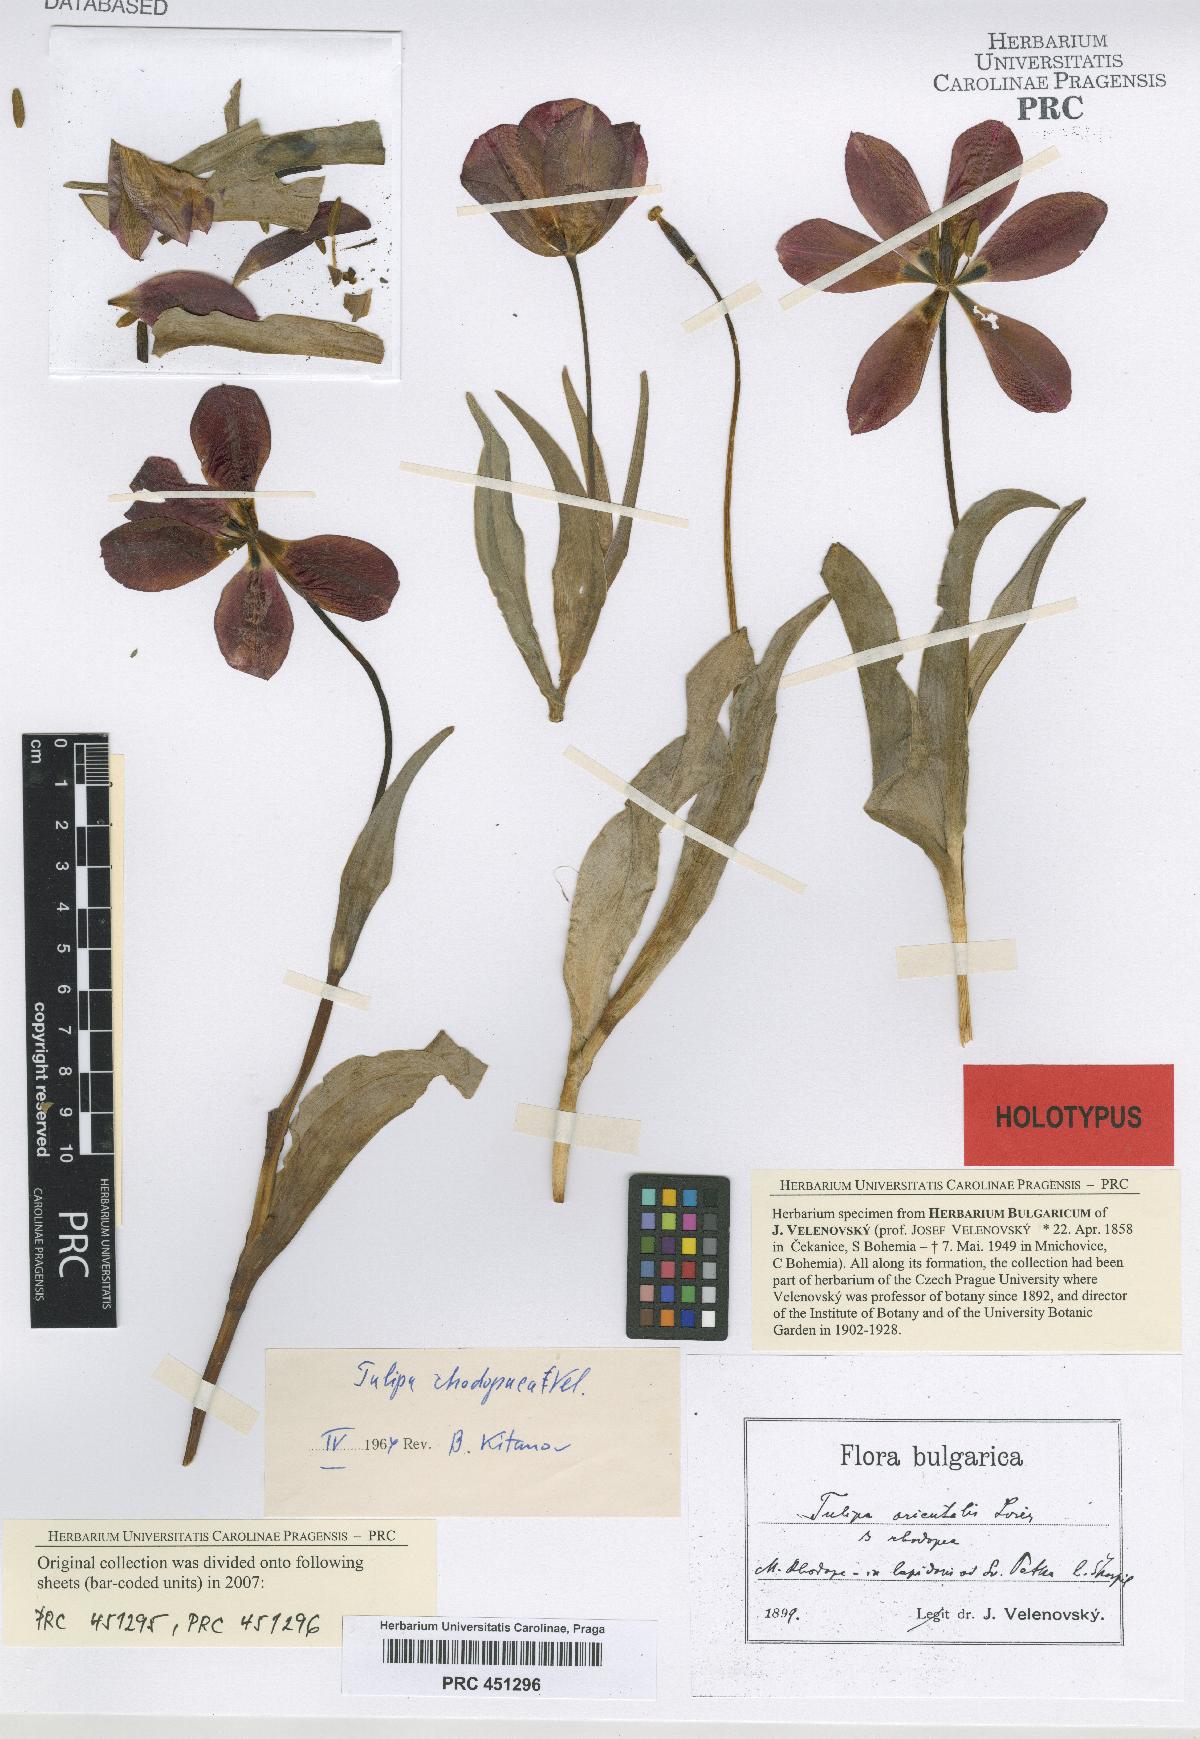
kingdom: Plantae
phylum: Tracheophyta
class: Liliopsida
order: Liliales
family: Liliaceae
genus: Tulipa
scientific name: Tulipa hungarica
